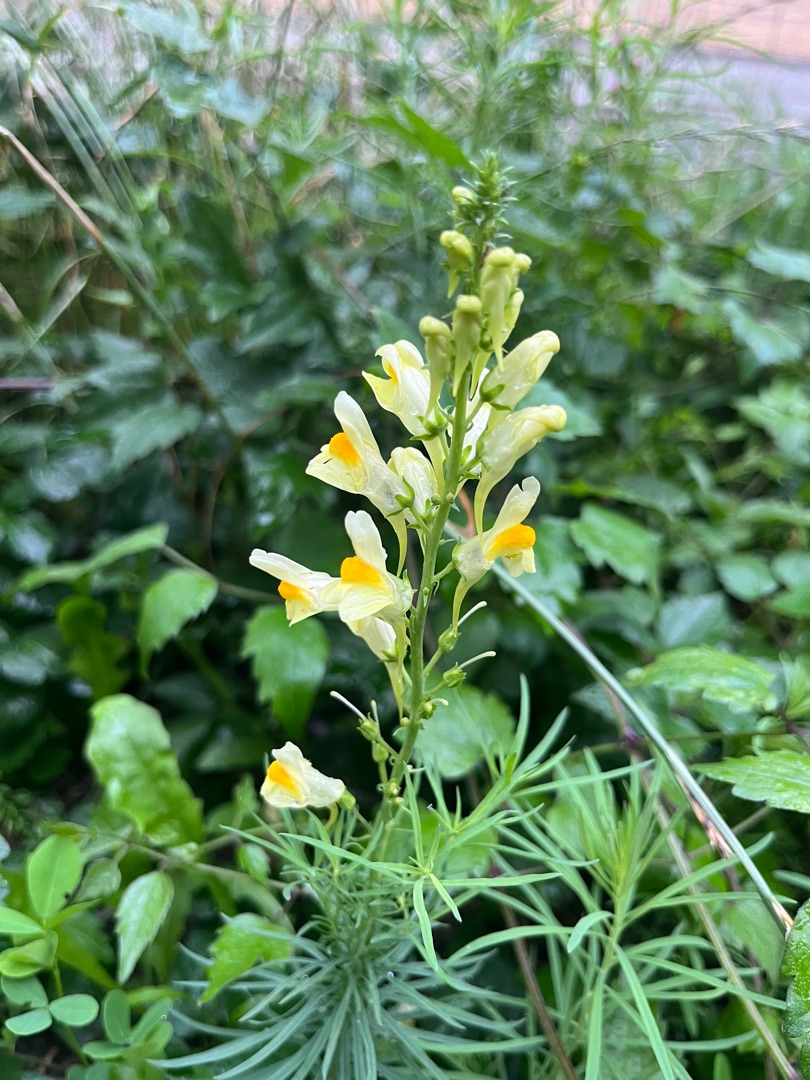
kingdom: Plantae
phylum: Tracheophyta
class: Magnoliopsida
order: Lamiales
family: Plantaginaceae
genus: Linaria
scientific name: Linaria vulgaris
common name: Almindelig torskemund
